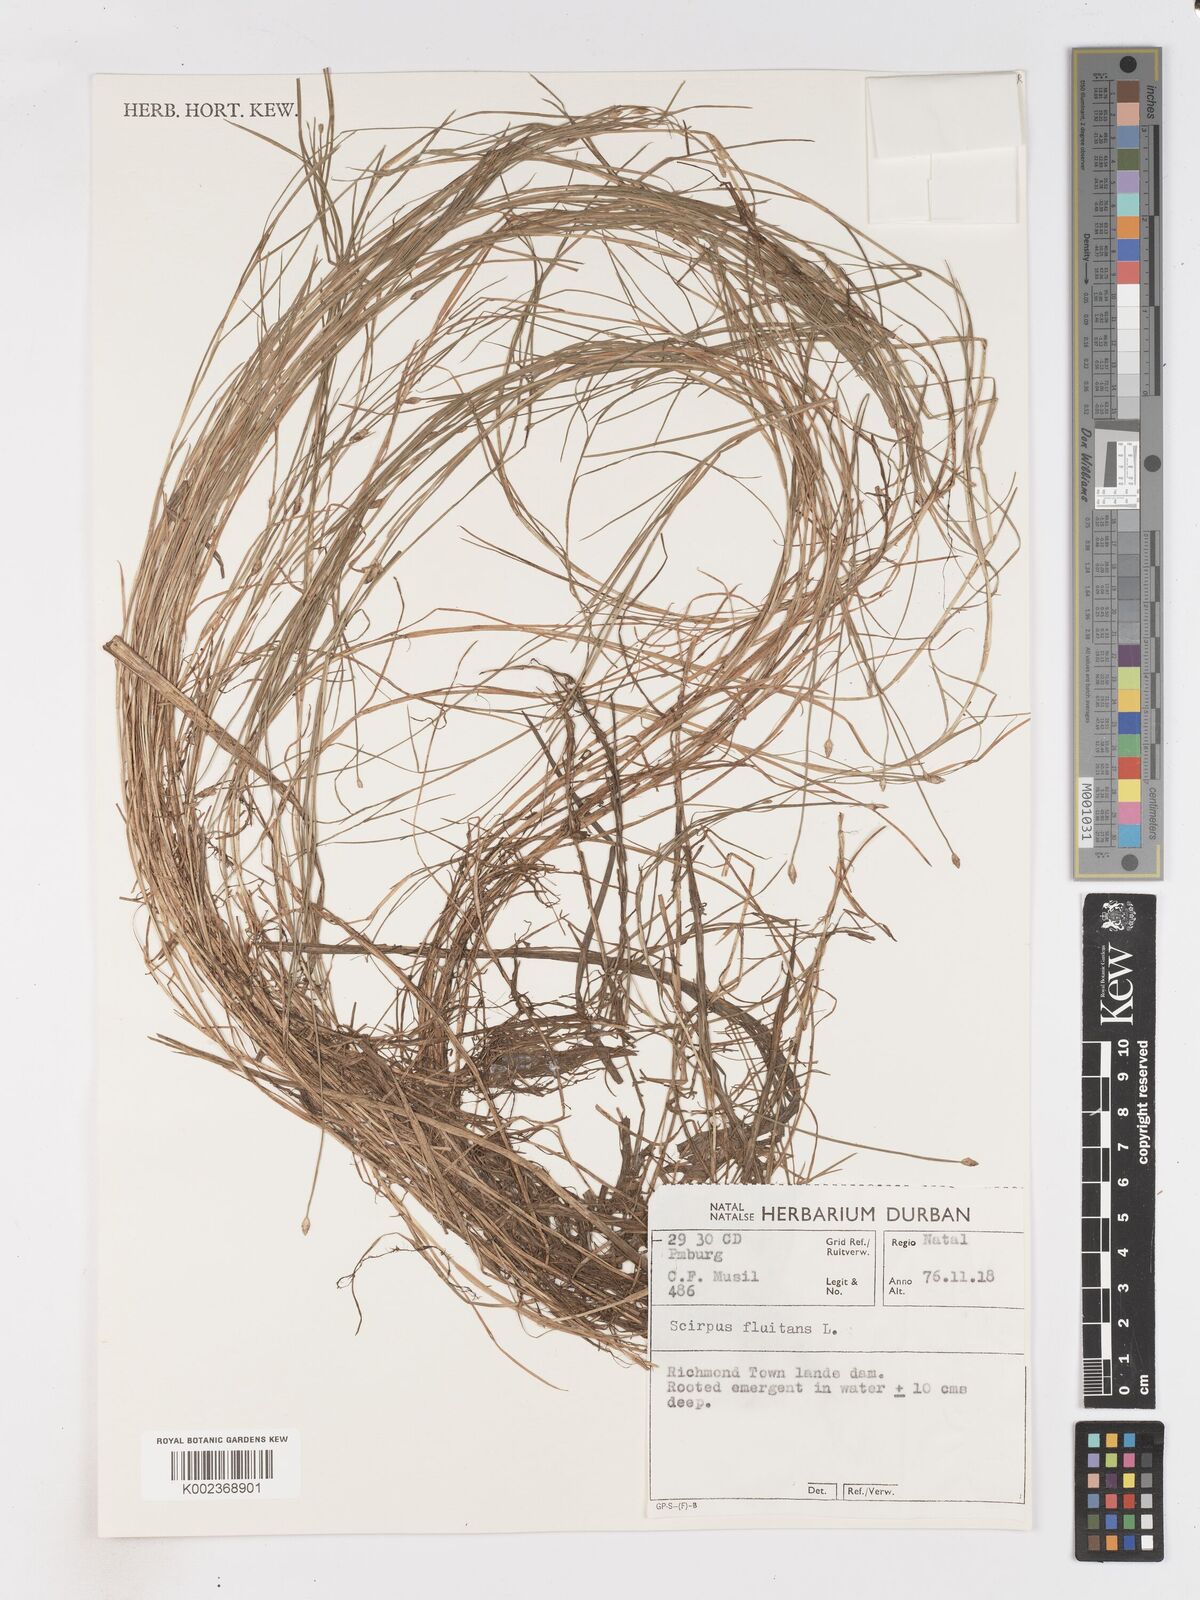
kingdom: Plantae
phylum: Tracheophyta
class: Liliopsida
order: Poales
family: Cyperaceae
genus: Isolepis
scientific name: Isolepis fluitans
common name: Floating club-rush
